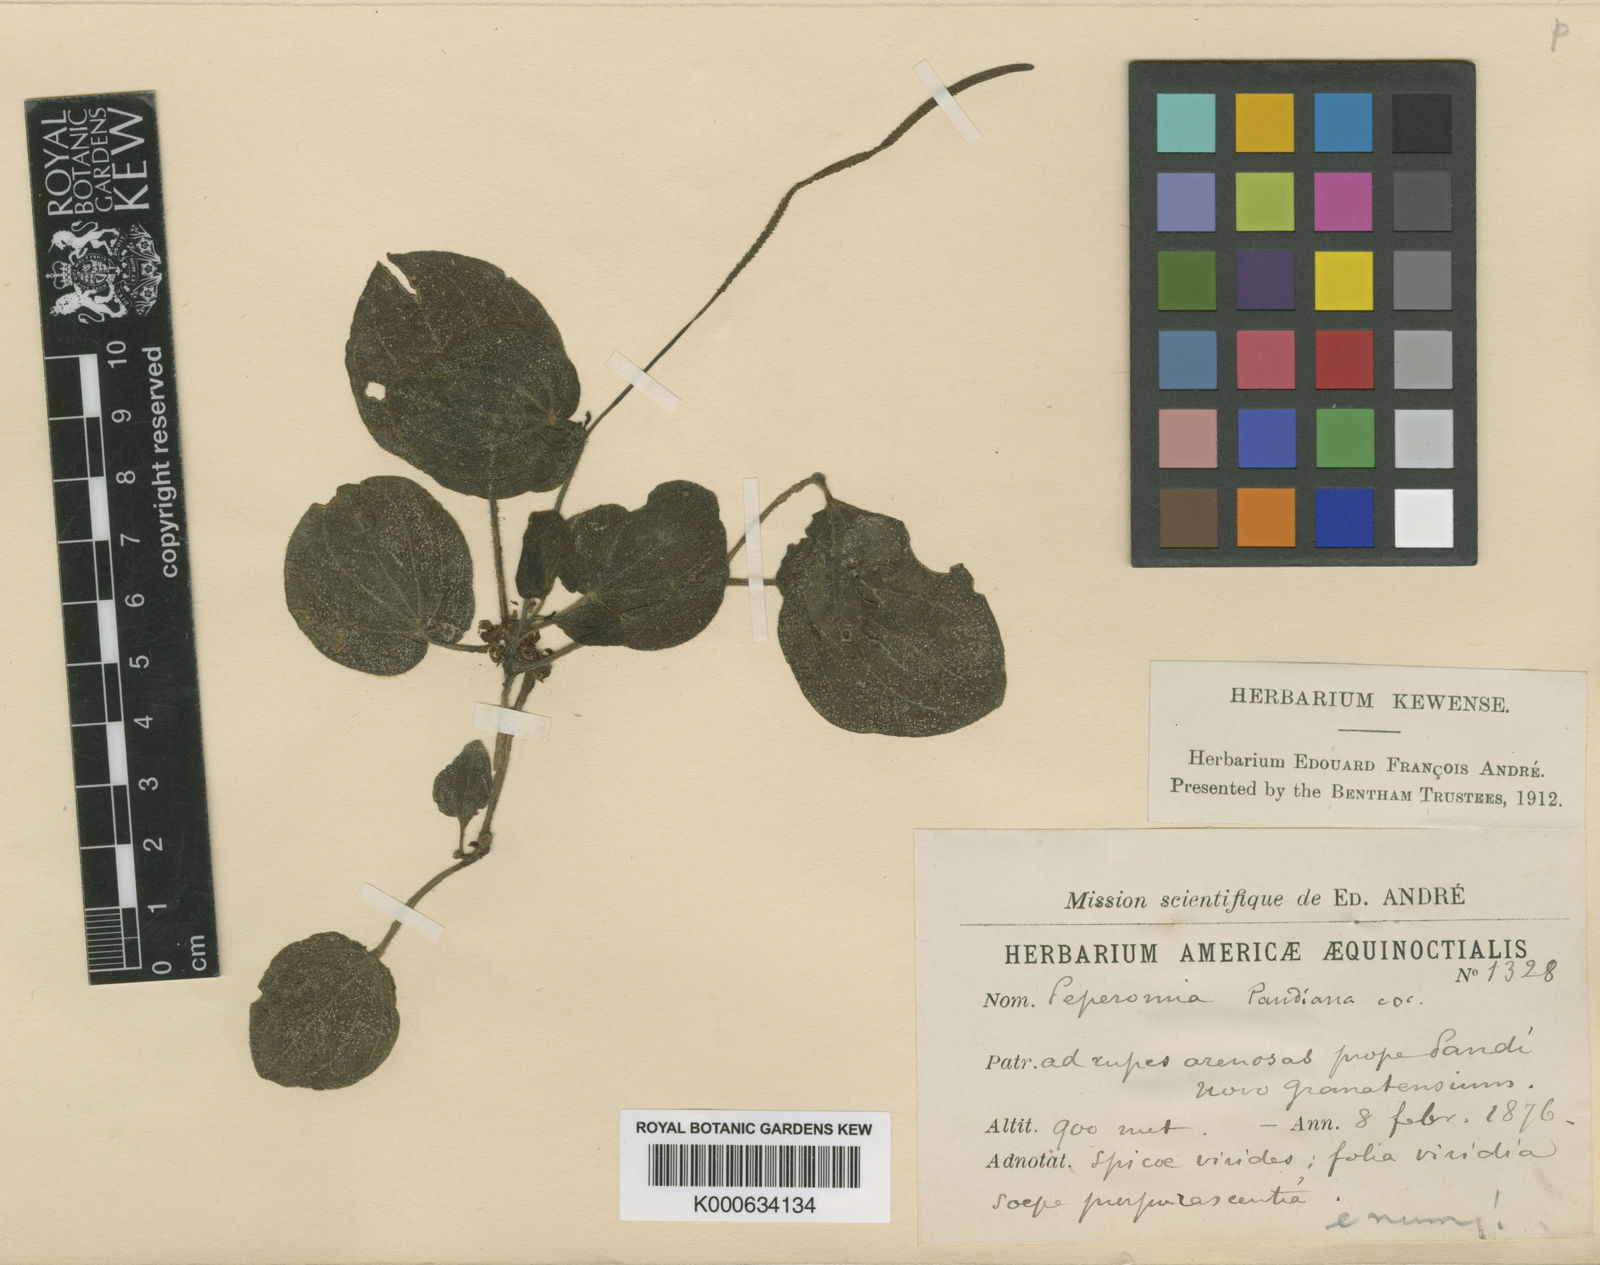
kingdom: Plantae
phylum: Tracheophyta
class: Magnoliopsida
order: Piperales
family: Piperaceae
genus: Peperomia
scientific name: Peperomia pandiana
